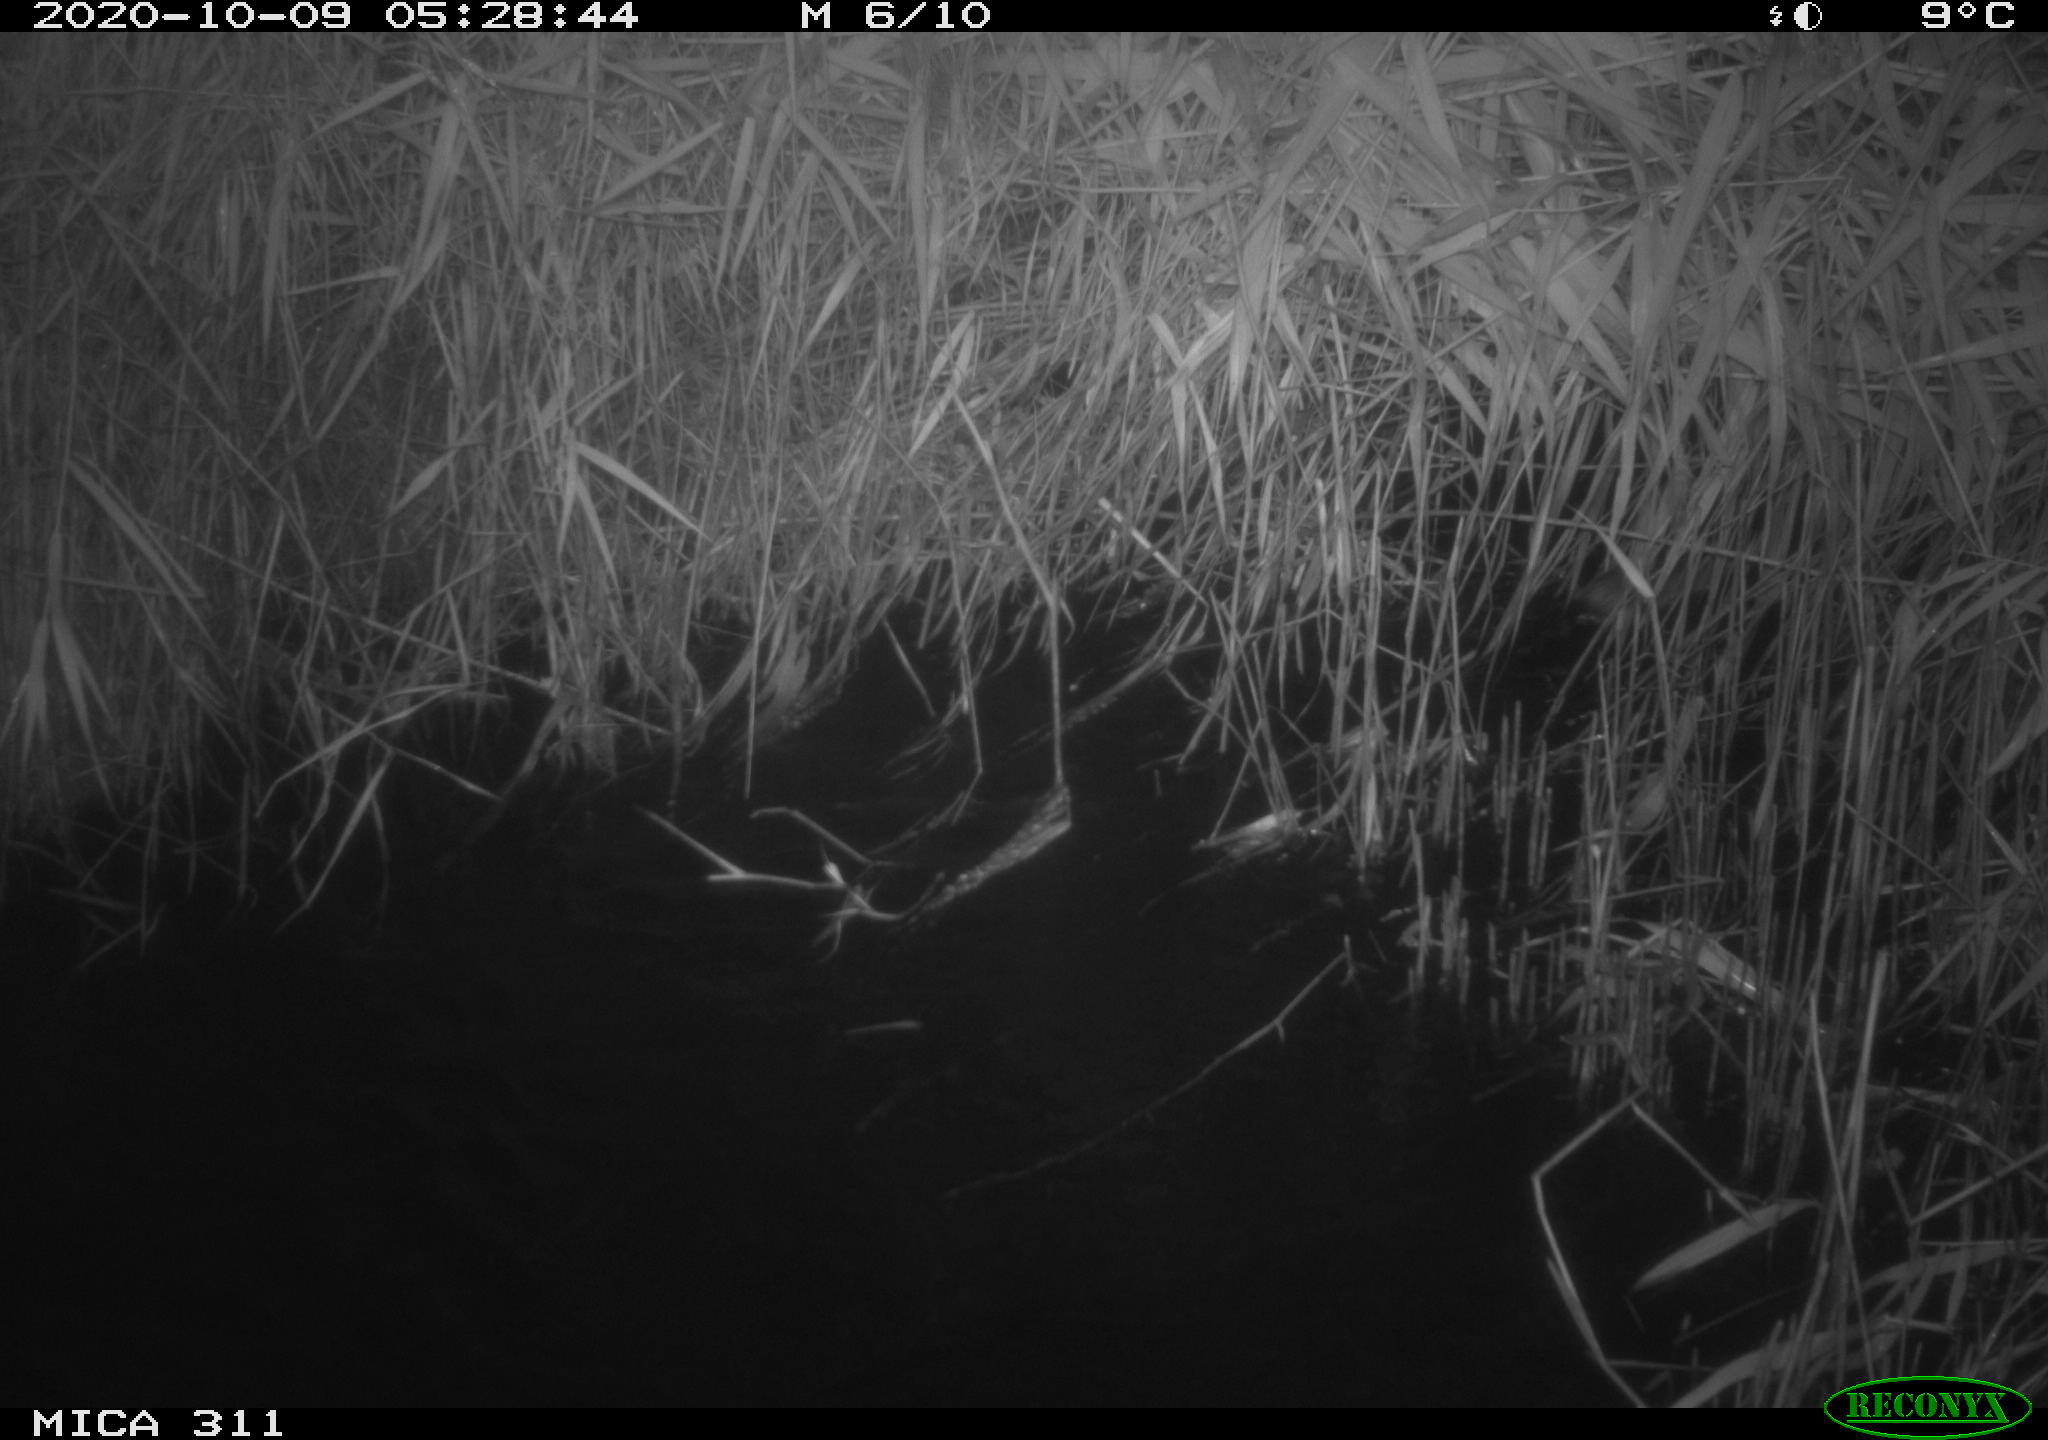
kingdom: Animalia
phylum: Chordata
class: Mammalia
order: Rodentia
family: Muridae
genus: Rattus
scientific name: Rattus norvegicus
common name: Brown rat
